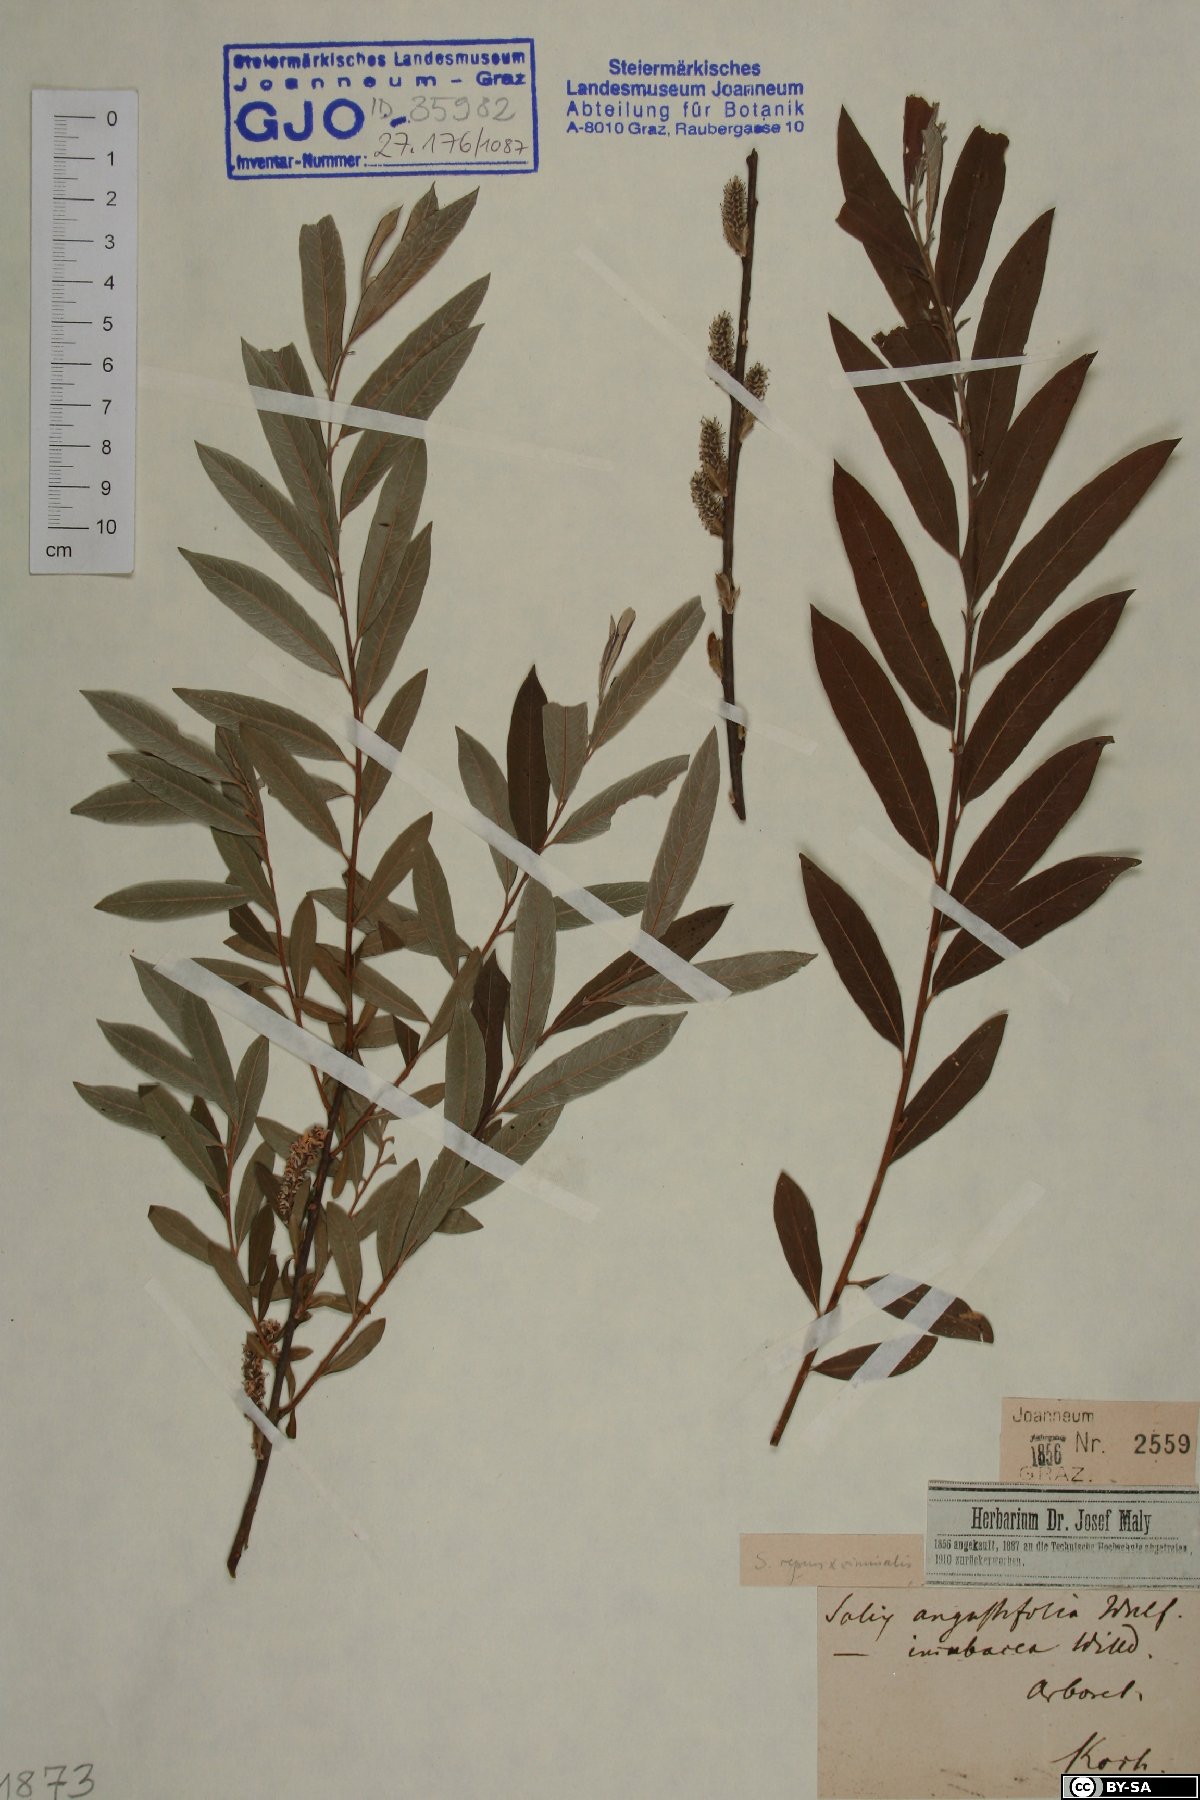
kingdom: Plantae
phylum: Tracheophyta
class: Magnoliopsida
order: Malpighiales
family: Salicaceae
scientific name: Salicaceae
